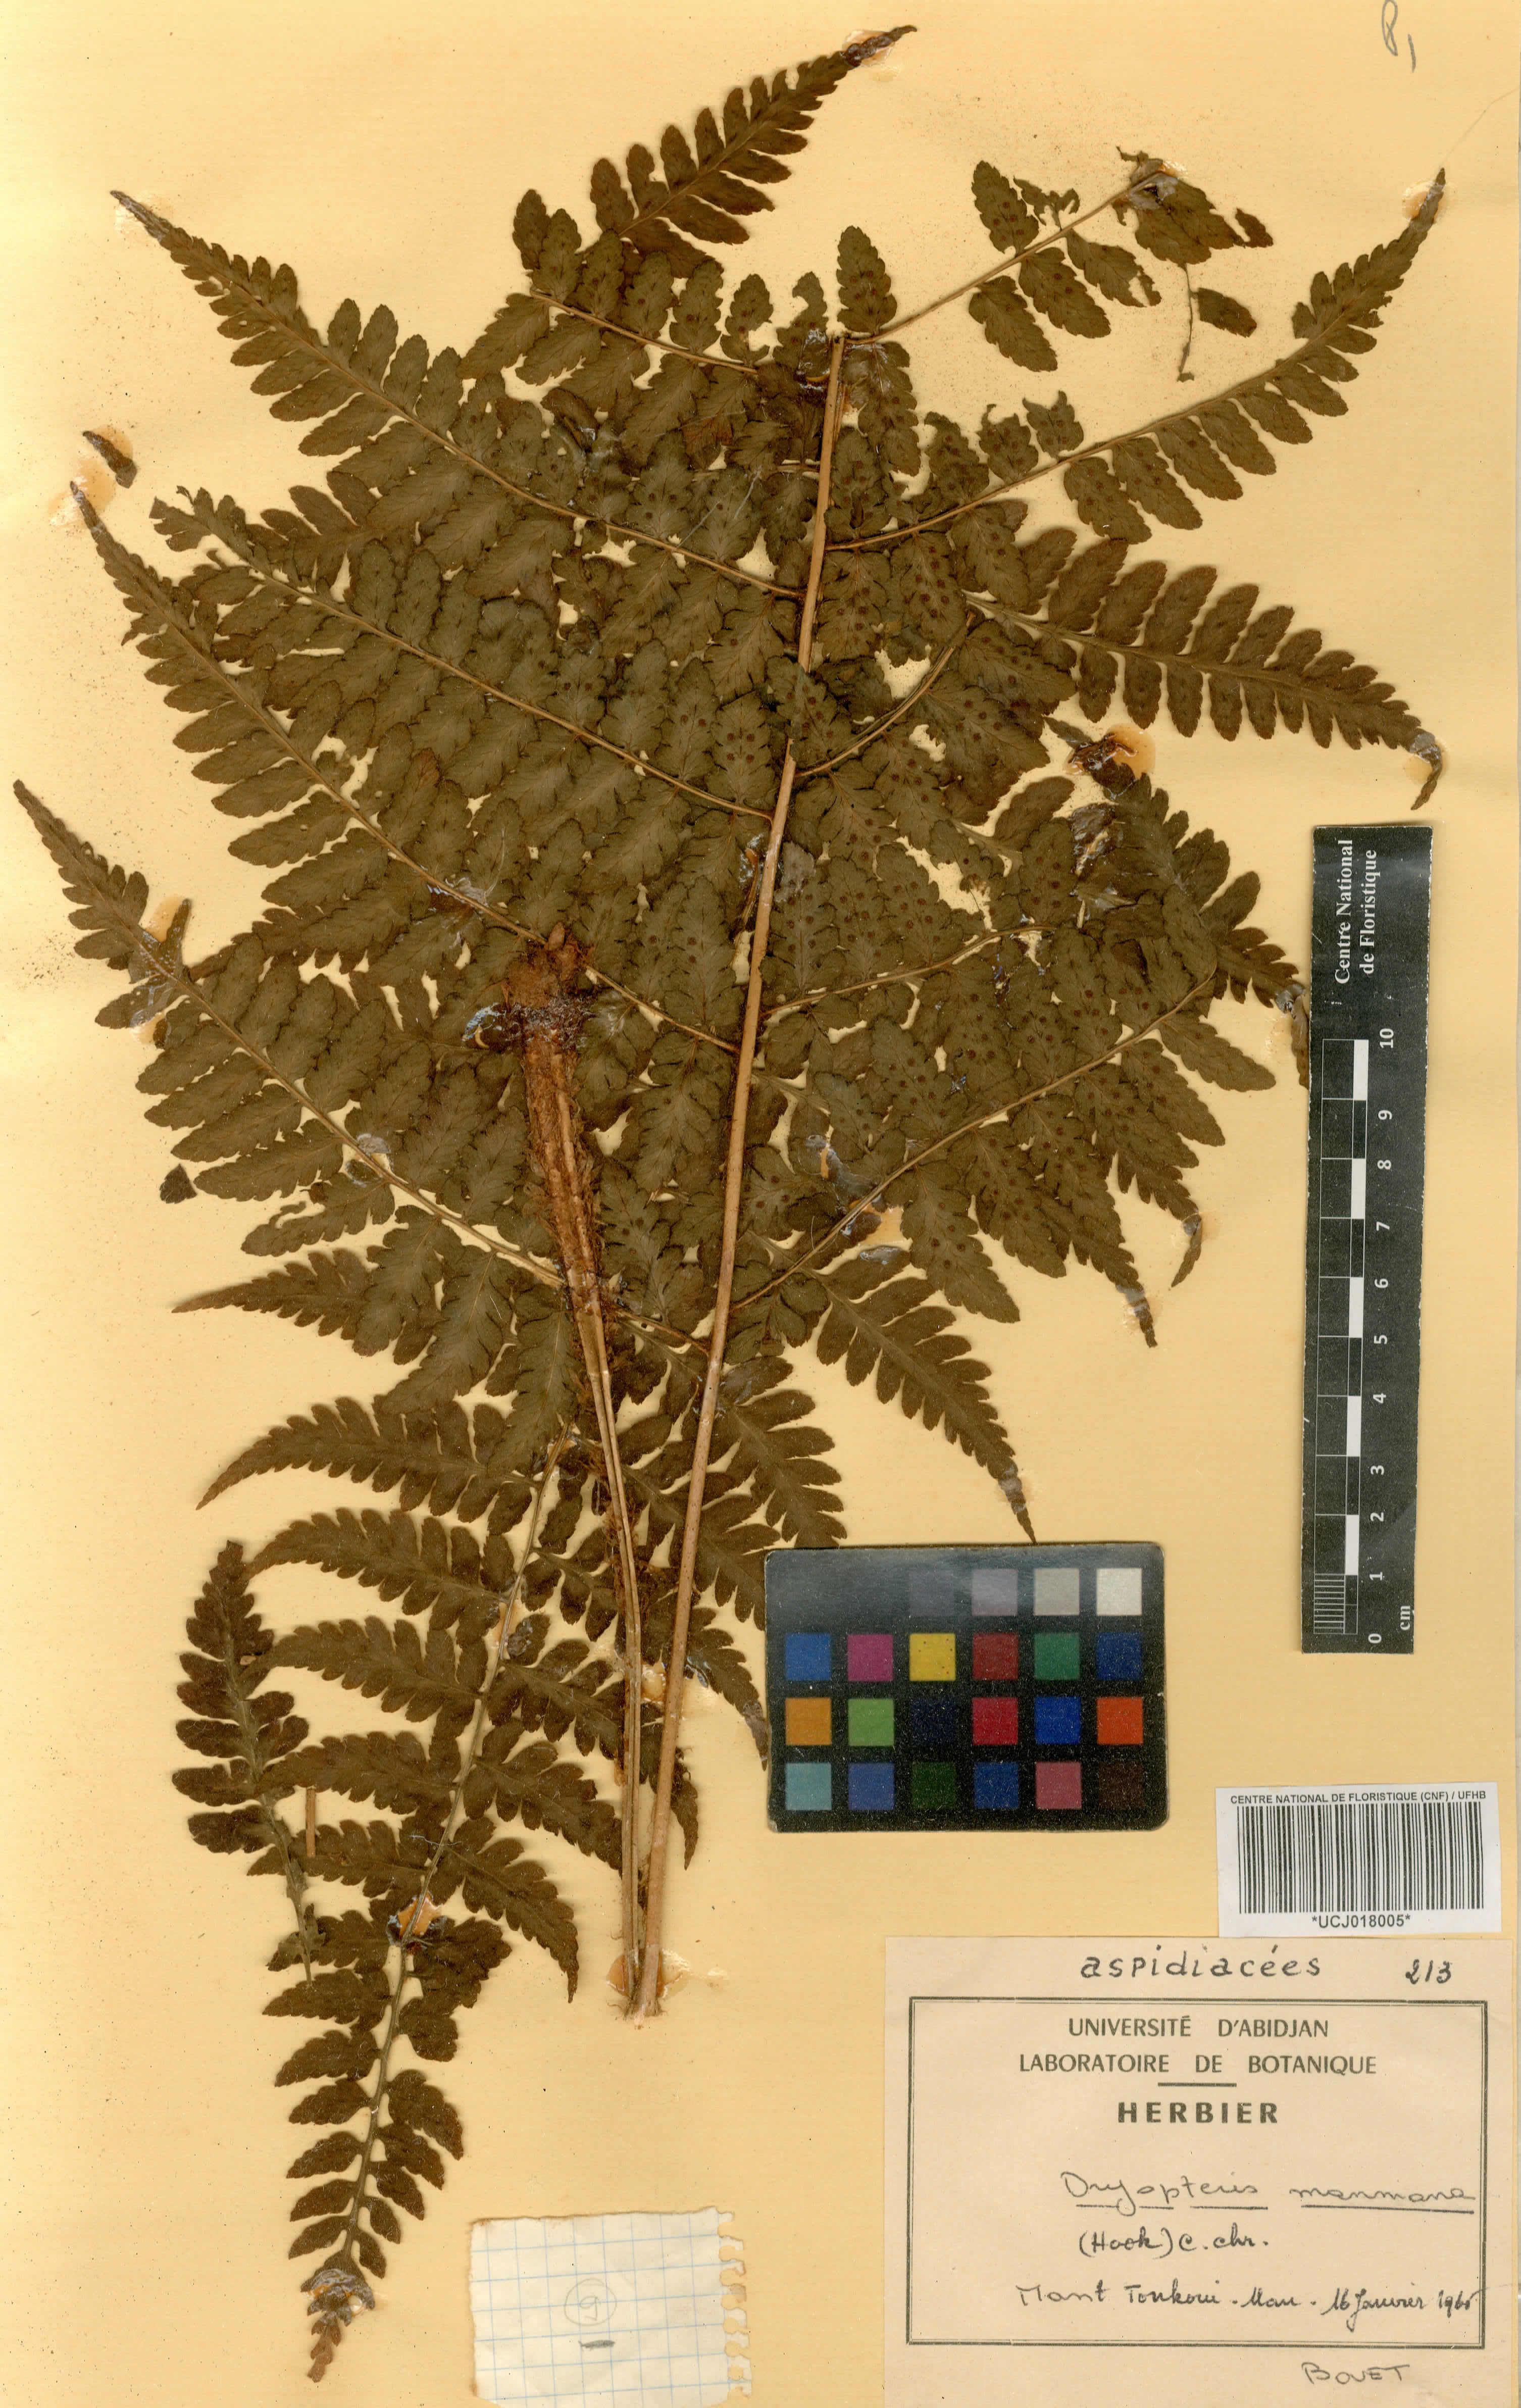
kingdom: Plantae
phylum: Tracheophyta
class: Polypodiopsida
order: Polypodiales
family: Dryopteridaceae
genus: Dryopteris
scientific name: Dryopteris manniana
